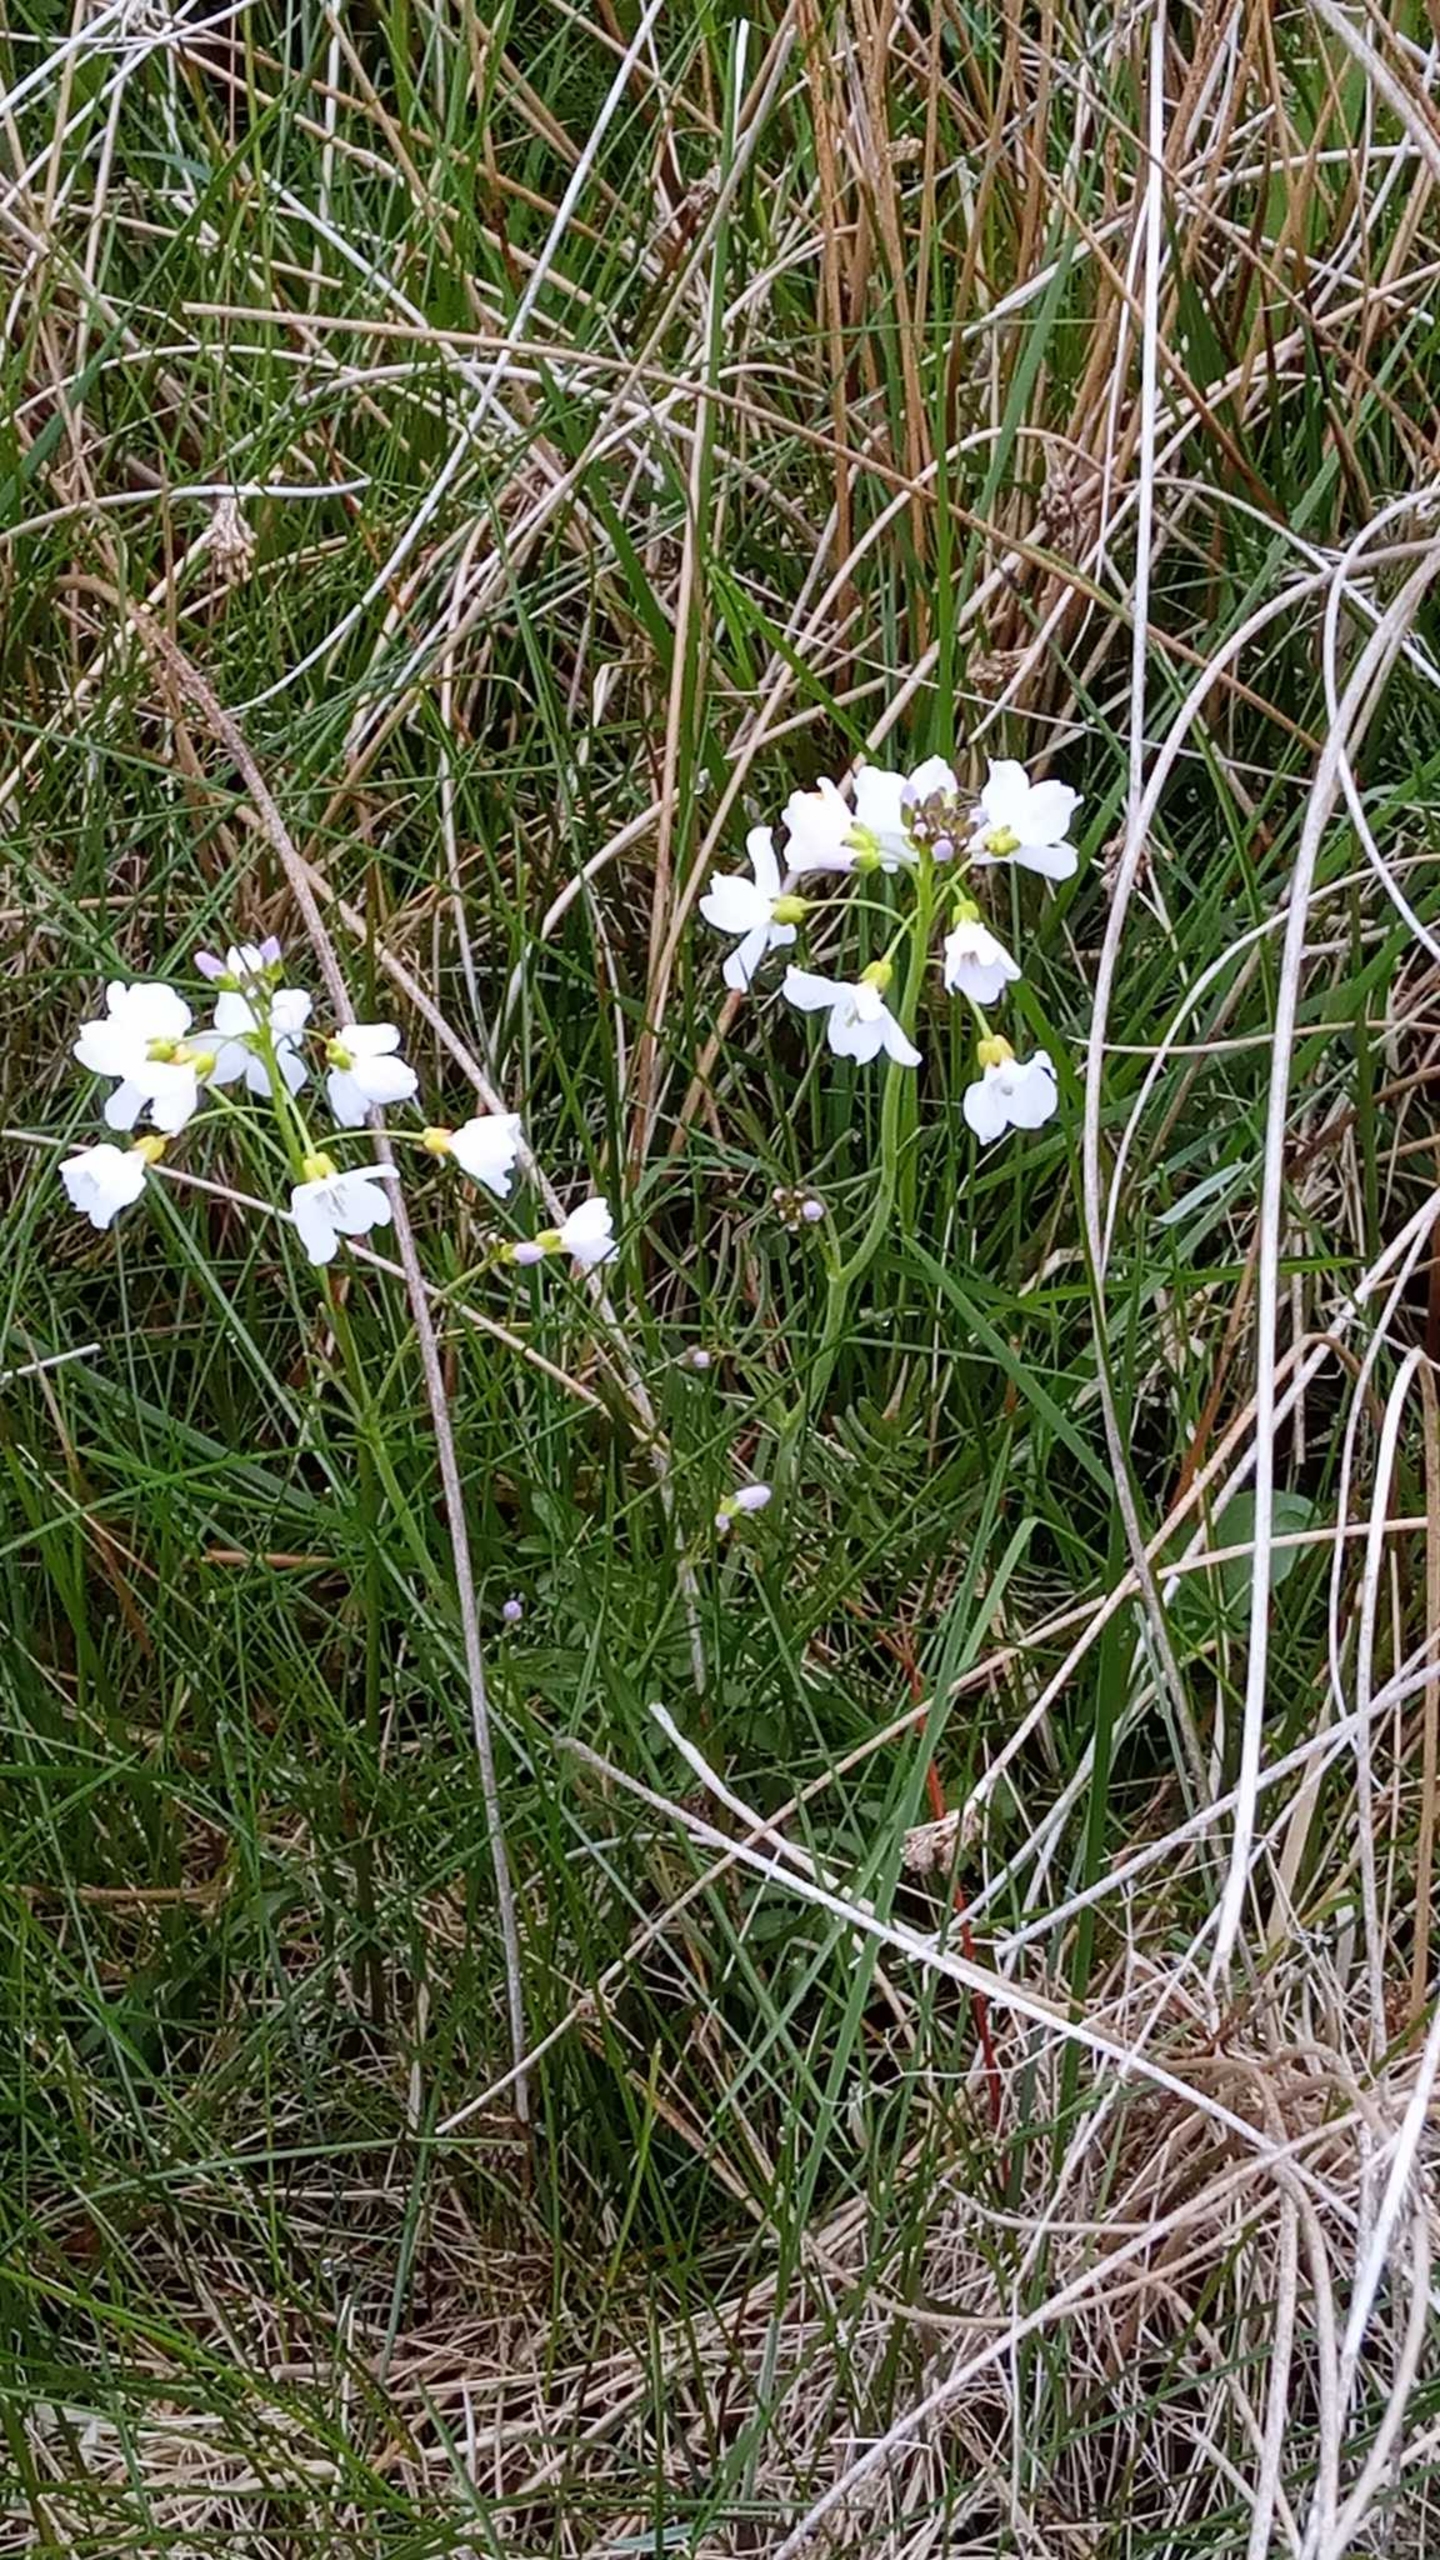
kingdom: Plantae
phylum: Tracheophyta
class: Magnoliopsida
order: Brassicales
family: Brassicaceae
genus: Cardamine
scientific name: Cardamine pratensis
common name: Engkarse
